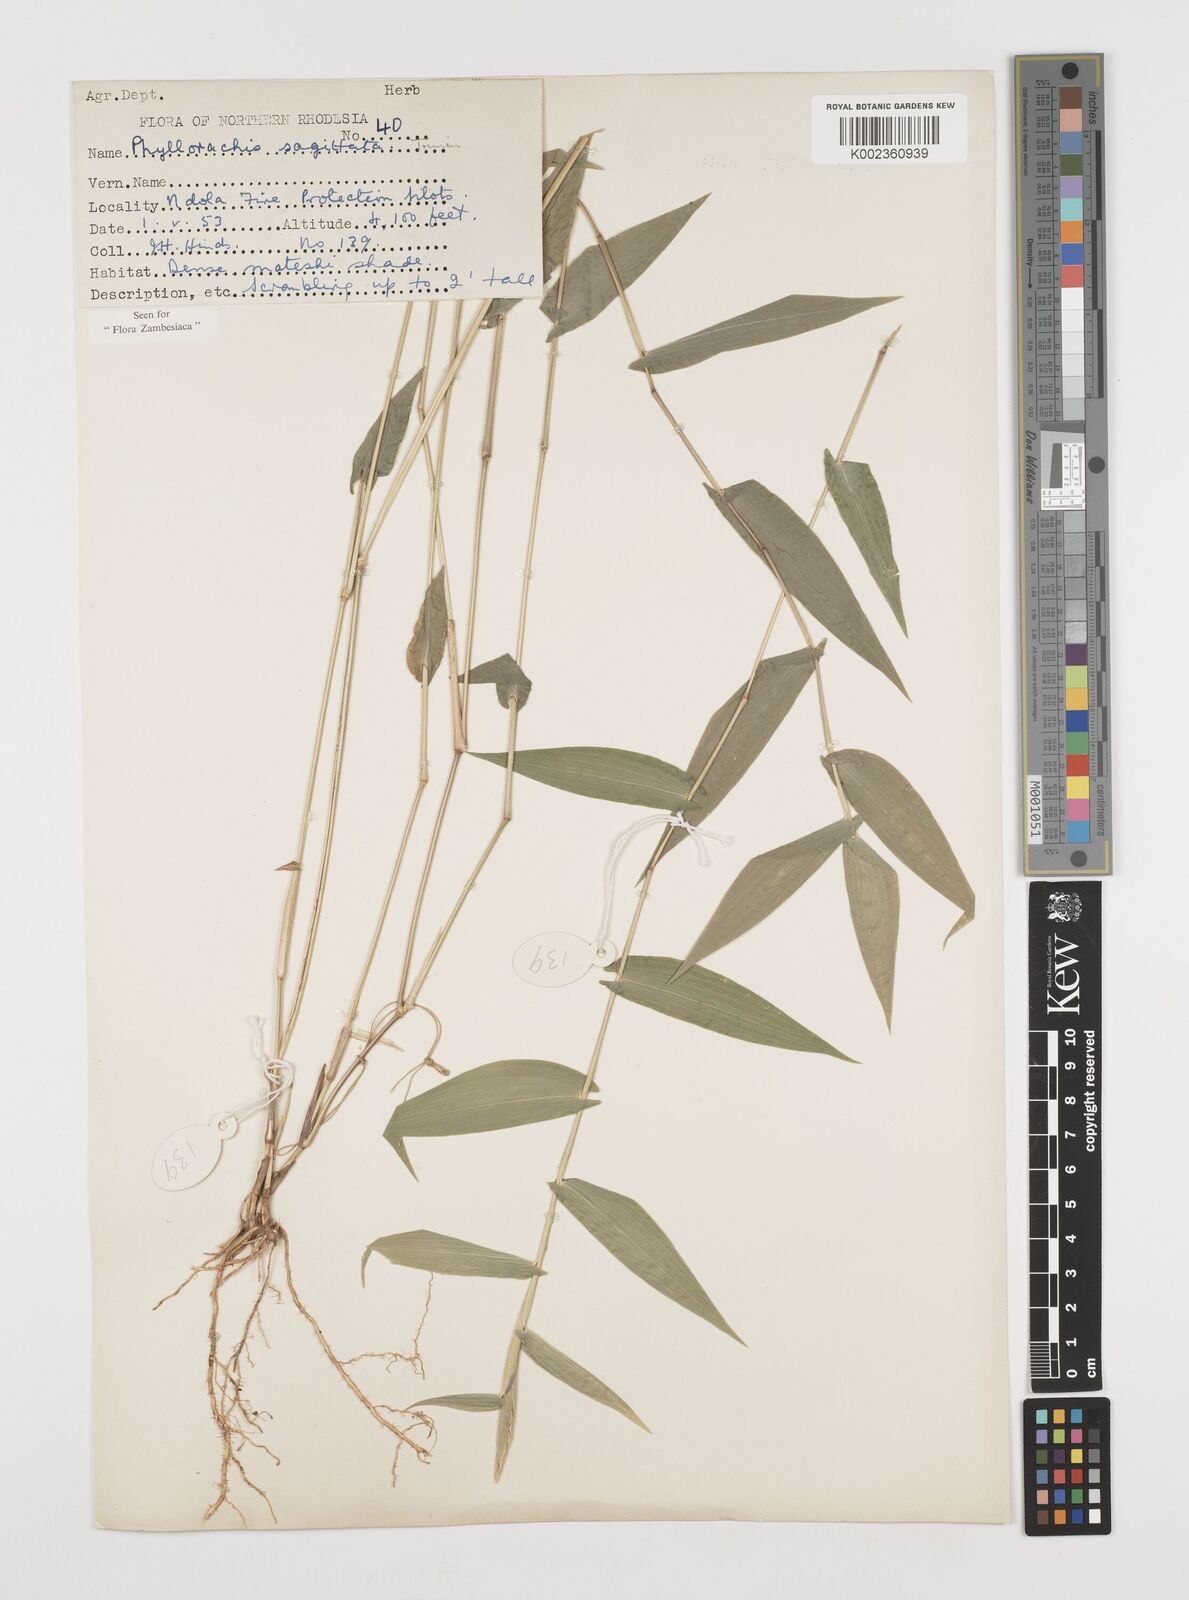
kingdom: Plantae
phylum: Tracheophyta
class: Liliopsida
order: Poales
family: Poaceae
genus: Phyllorachis
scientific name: Phyllorachis sagittata
